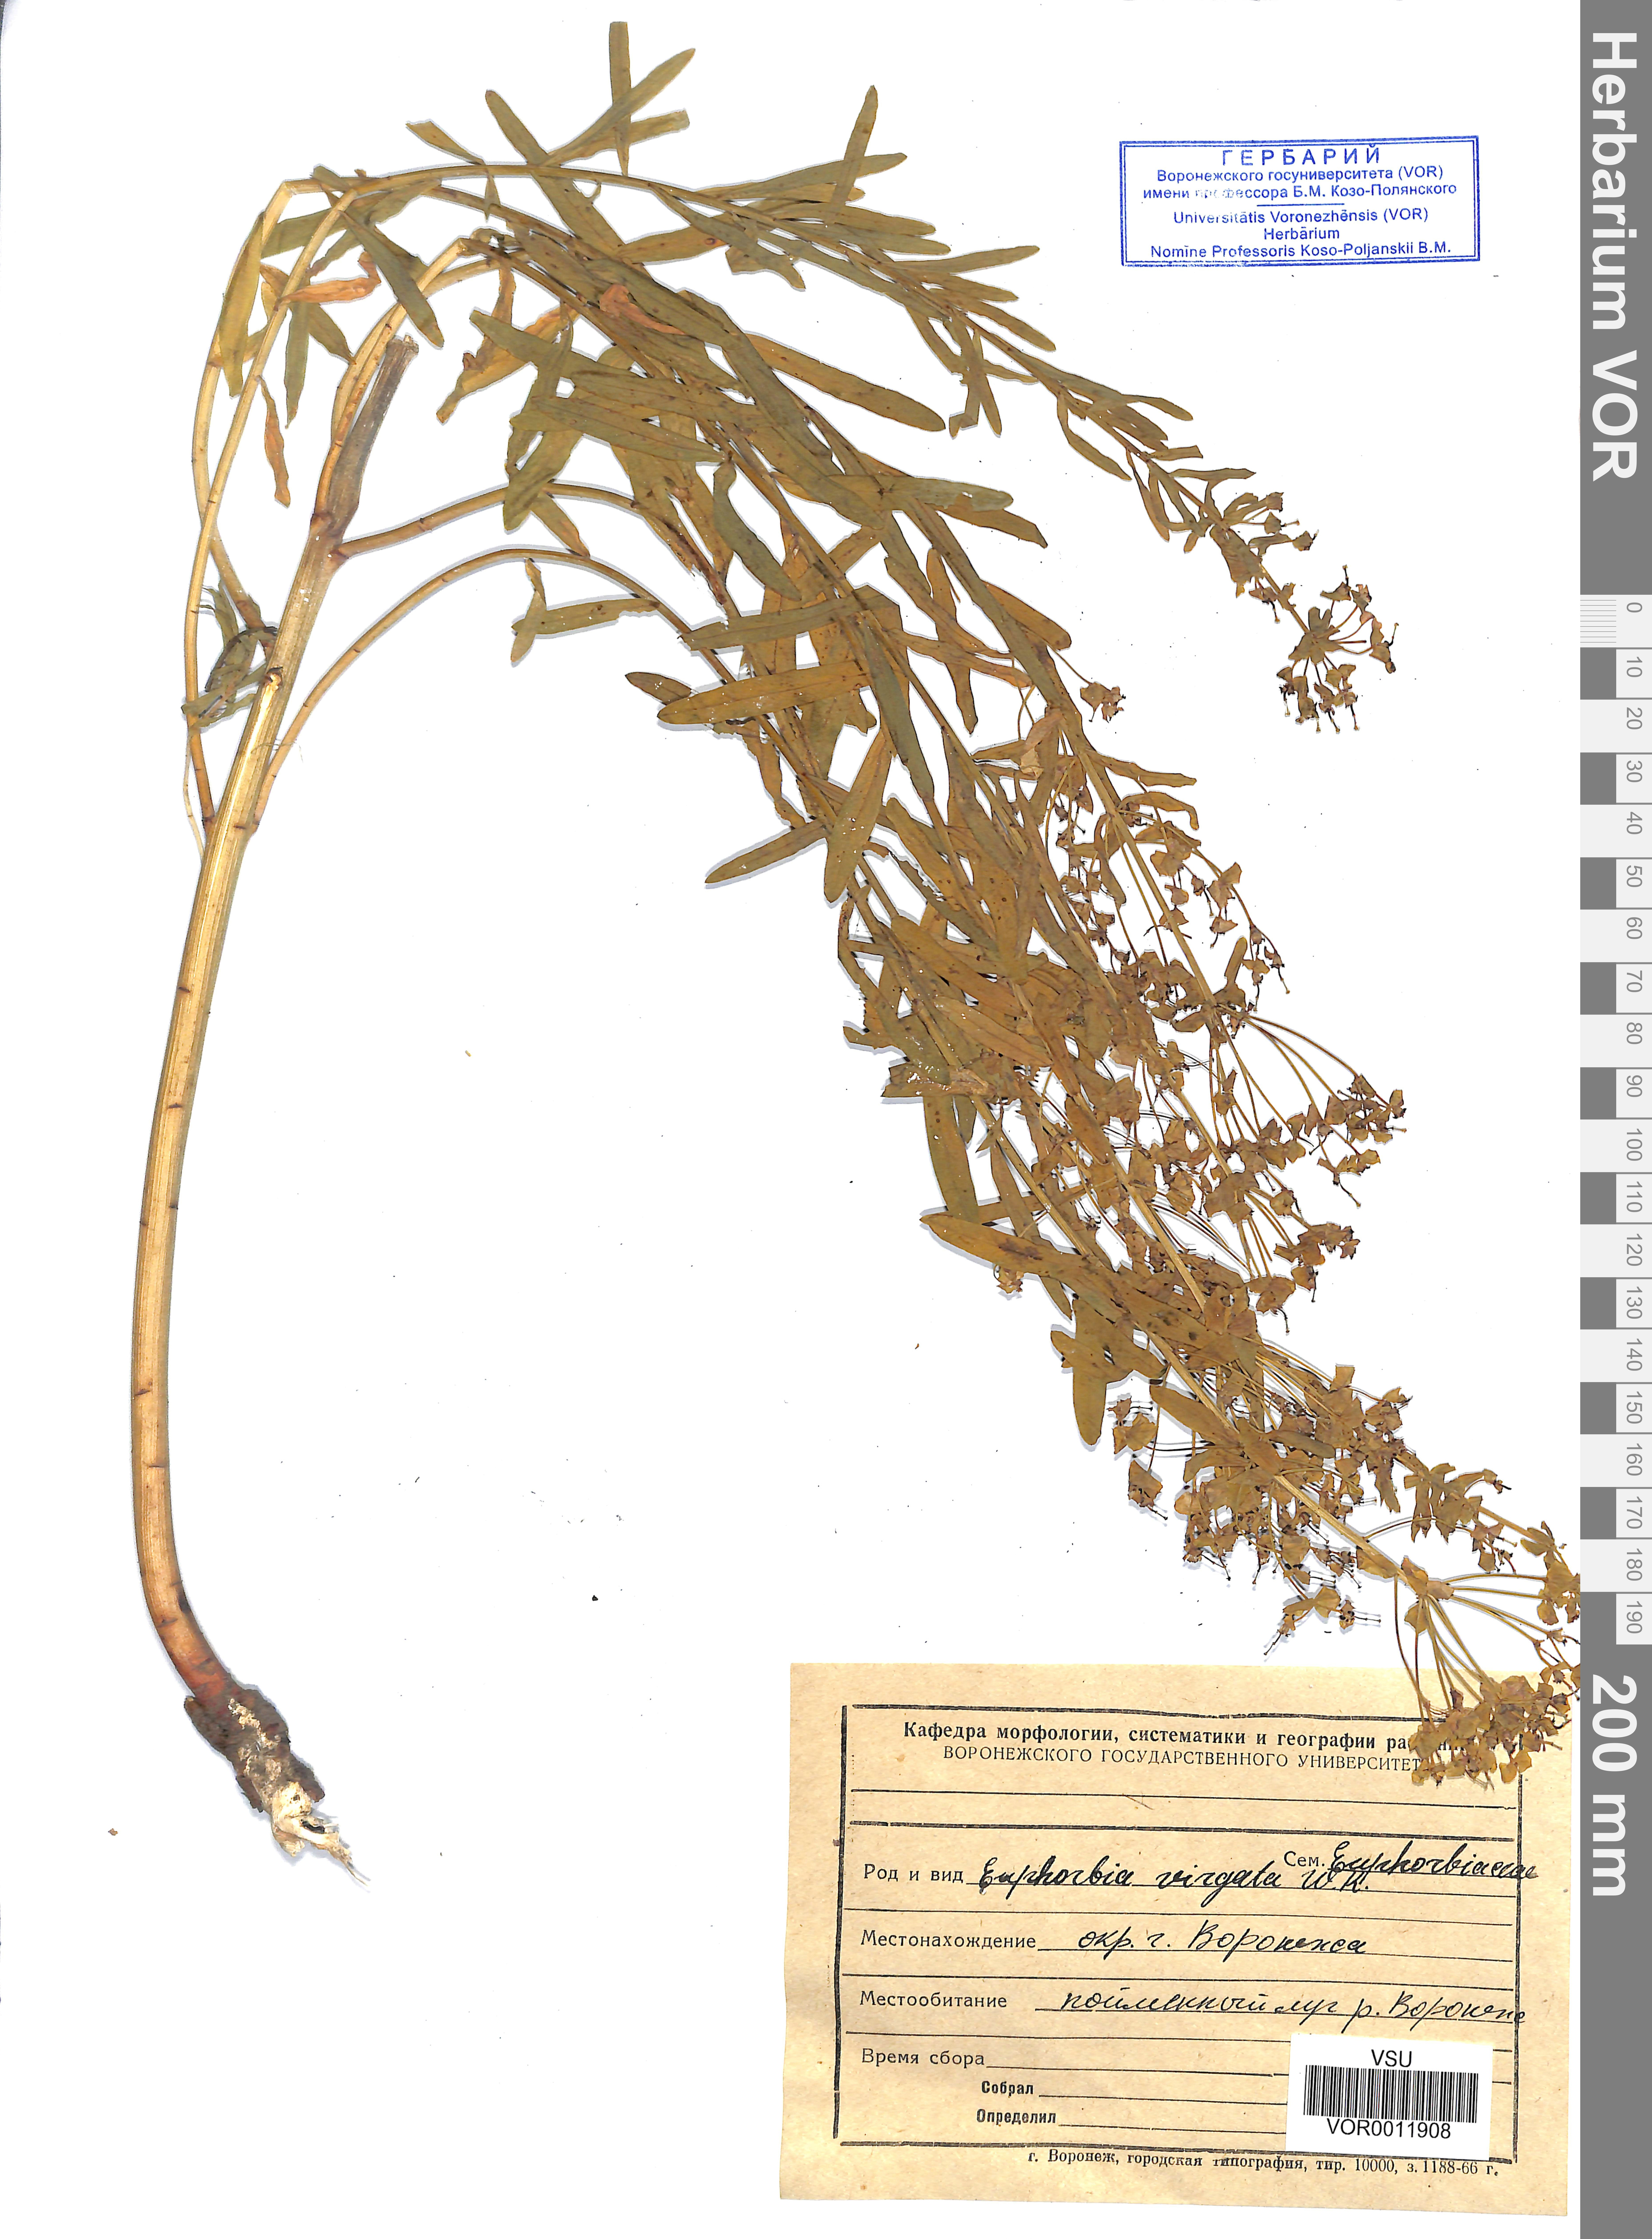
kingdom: Plantae
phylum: Tracheophyta
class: Magnoliopsida
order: Malpighiales
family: Euphorbiaceae
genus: Euphorbia
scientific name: Euphorbia virgata
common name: Leafy spurge
